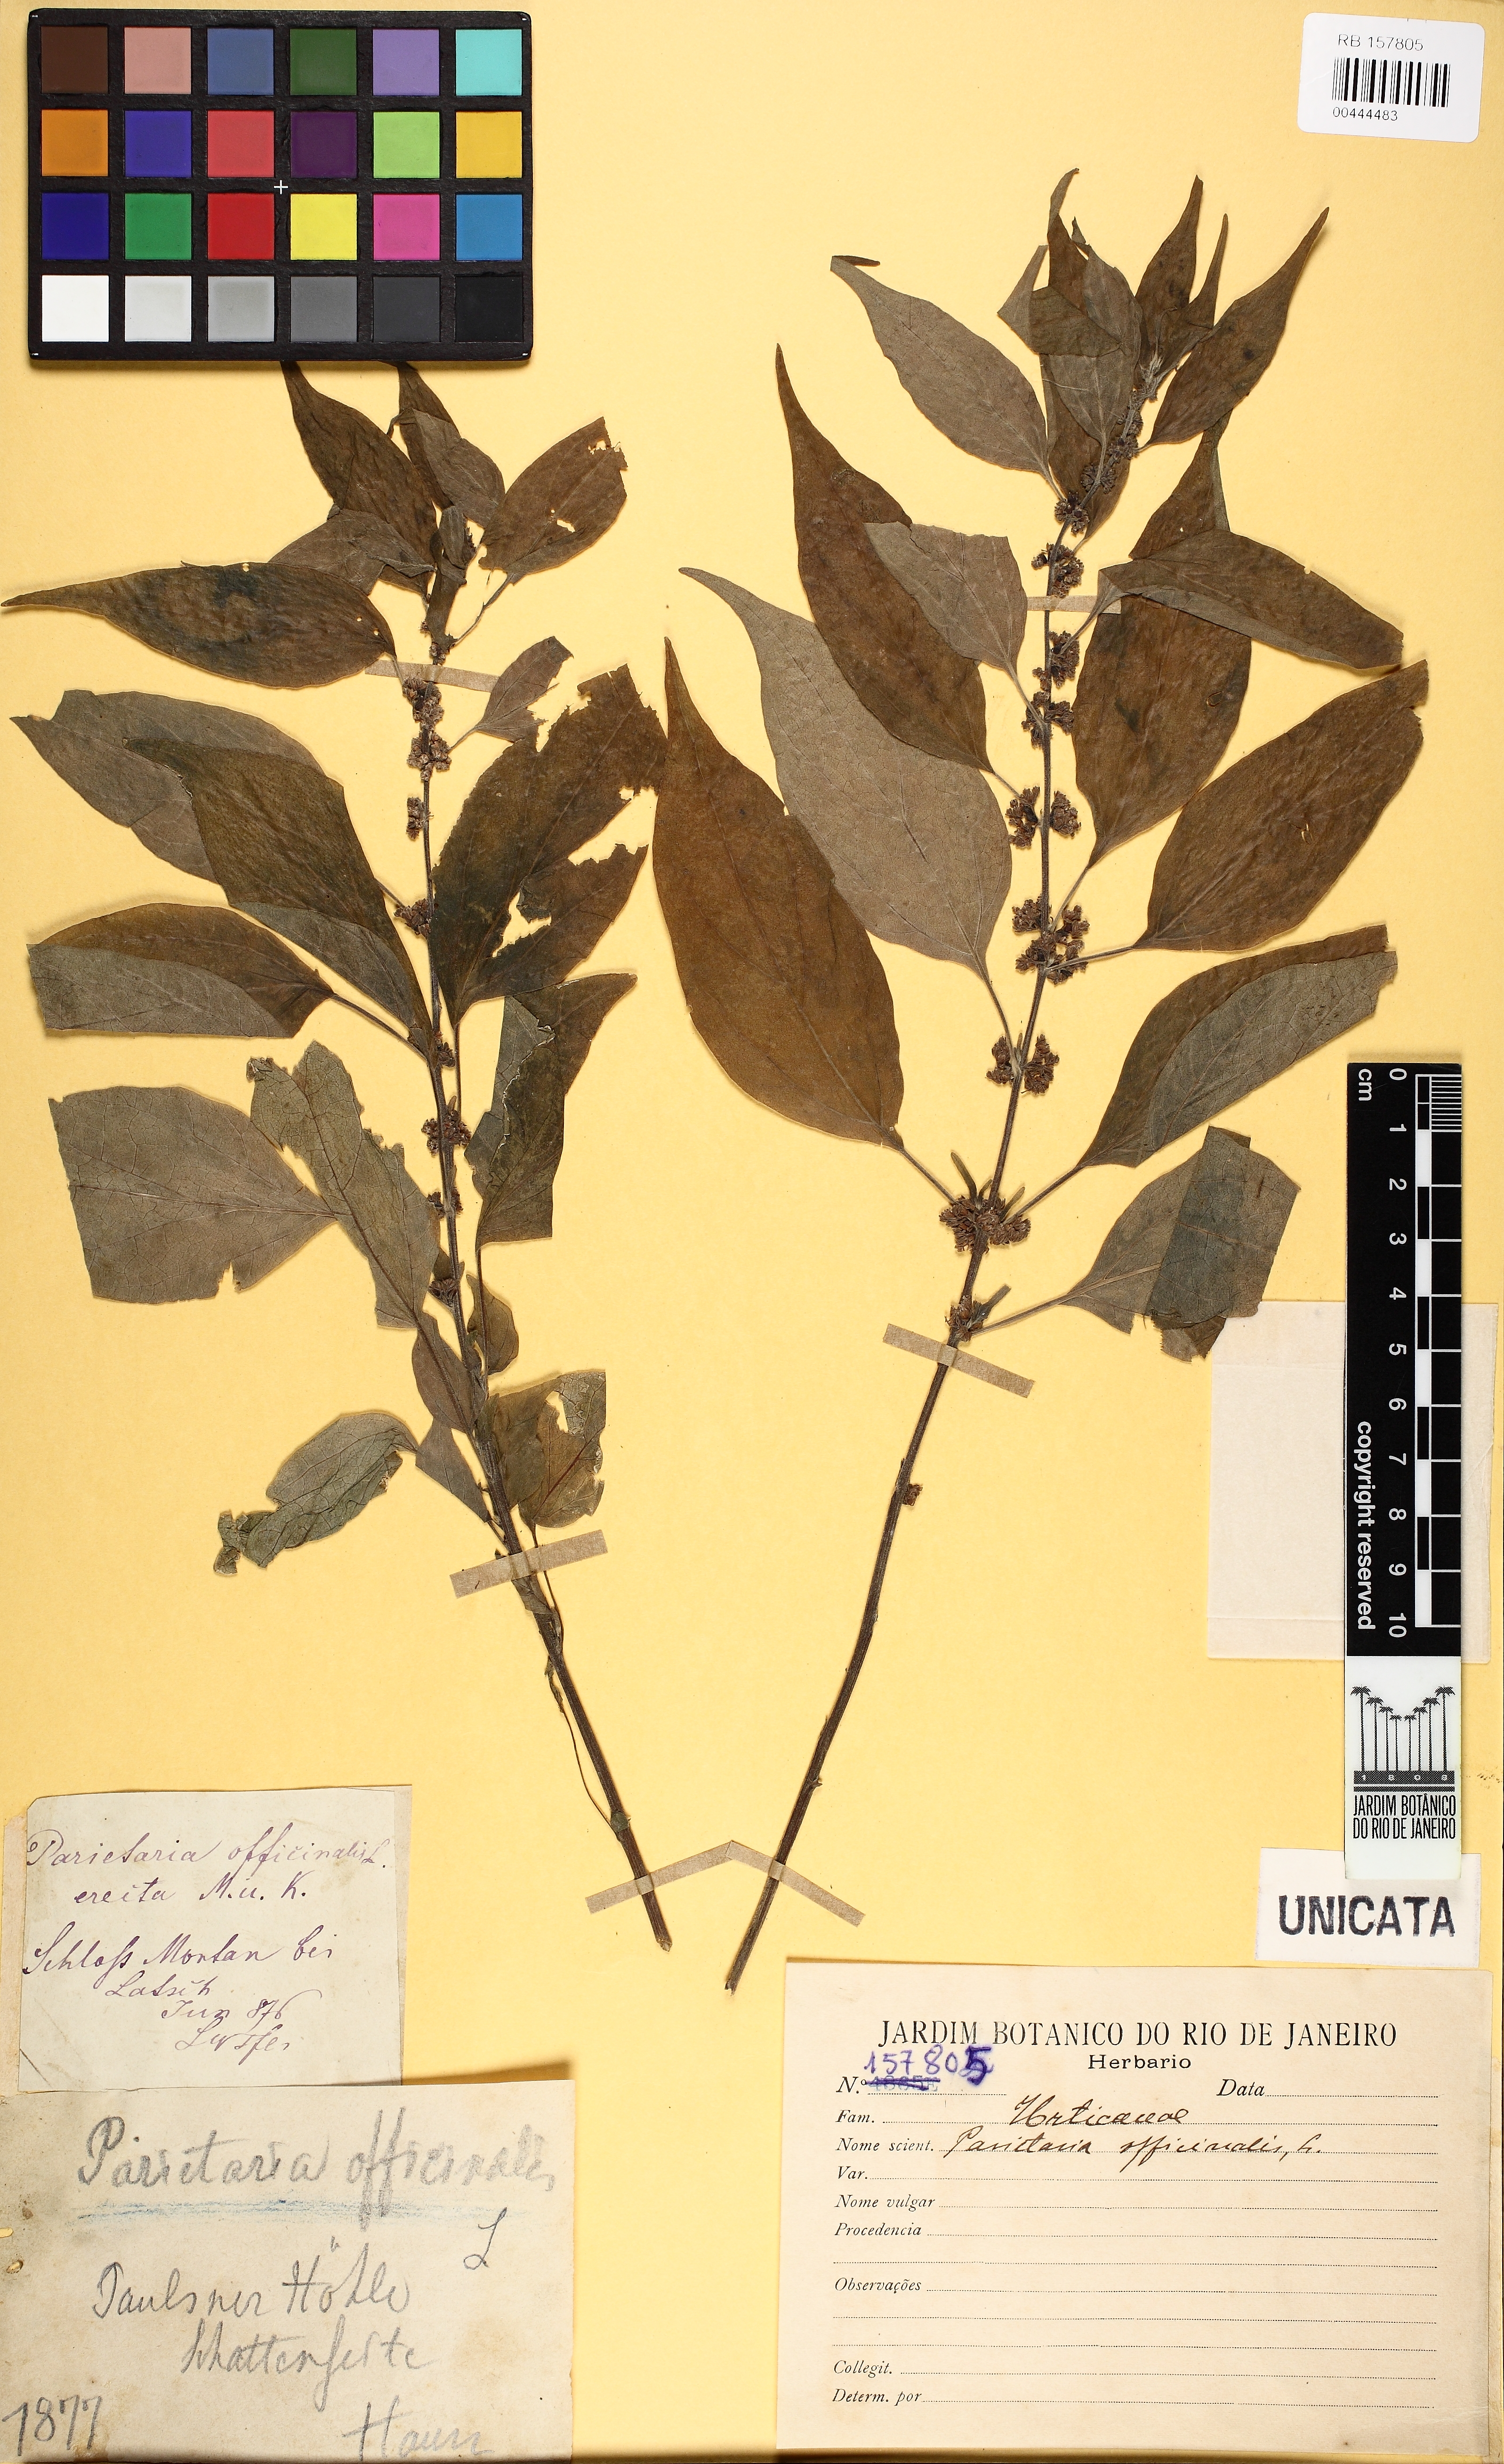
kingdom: Plantae
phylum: Tracheophyta
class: Magnoliopsida
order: Rosales
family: Urticaceae
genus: Parietaria
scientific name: Parietaria officinalis
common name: Eastern pellitory-of-the-wall
